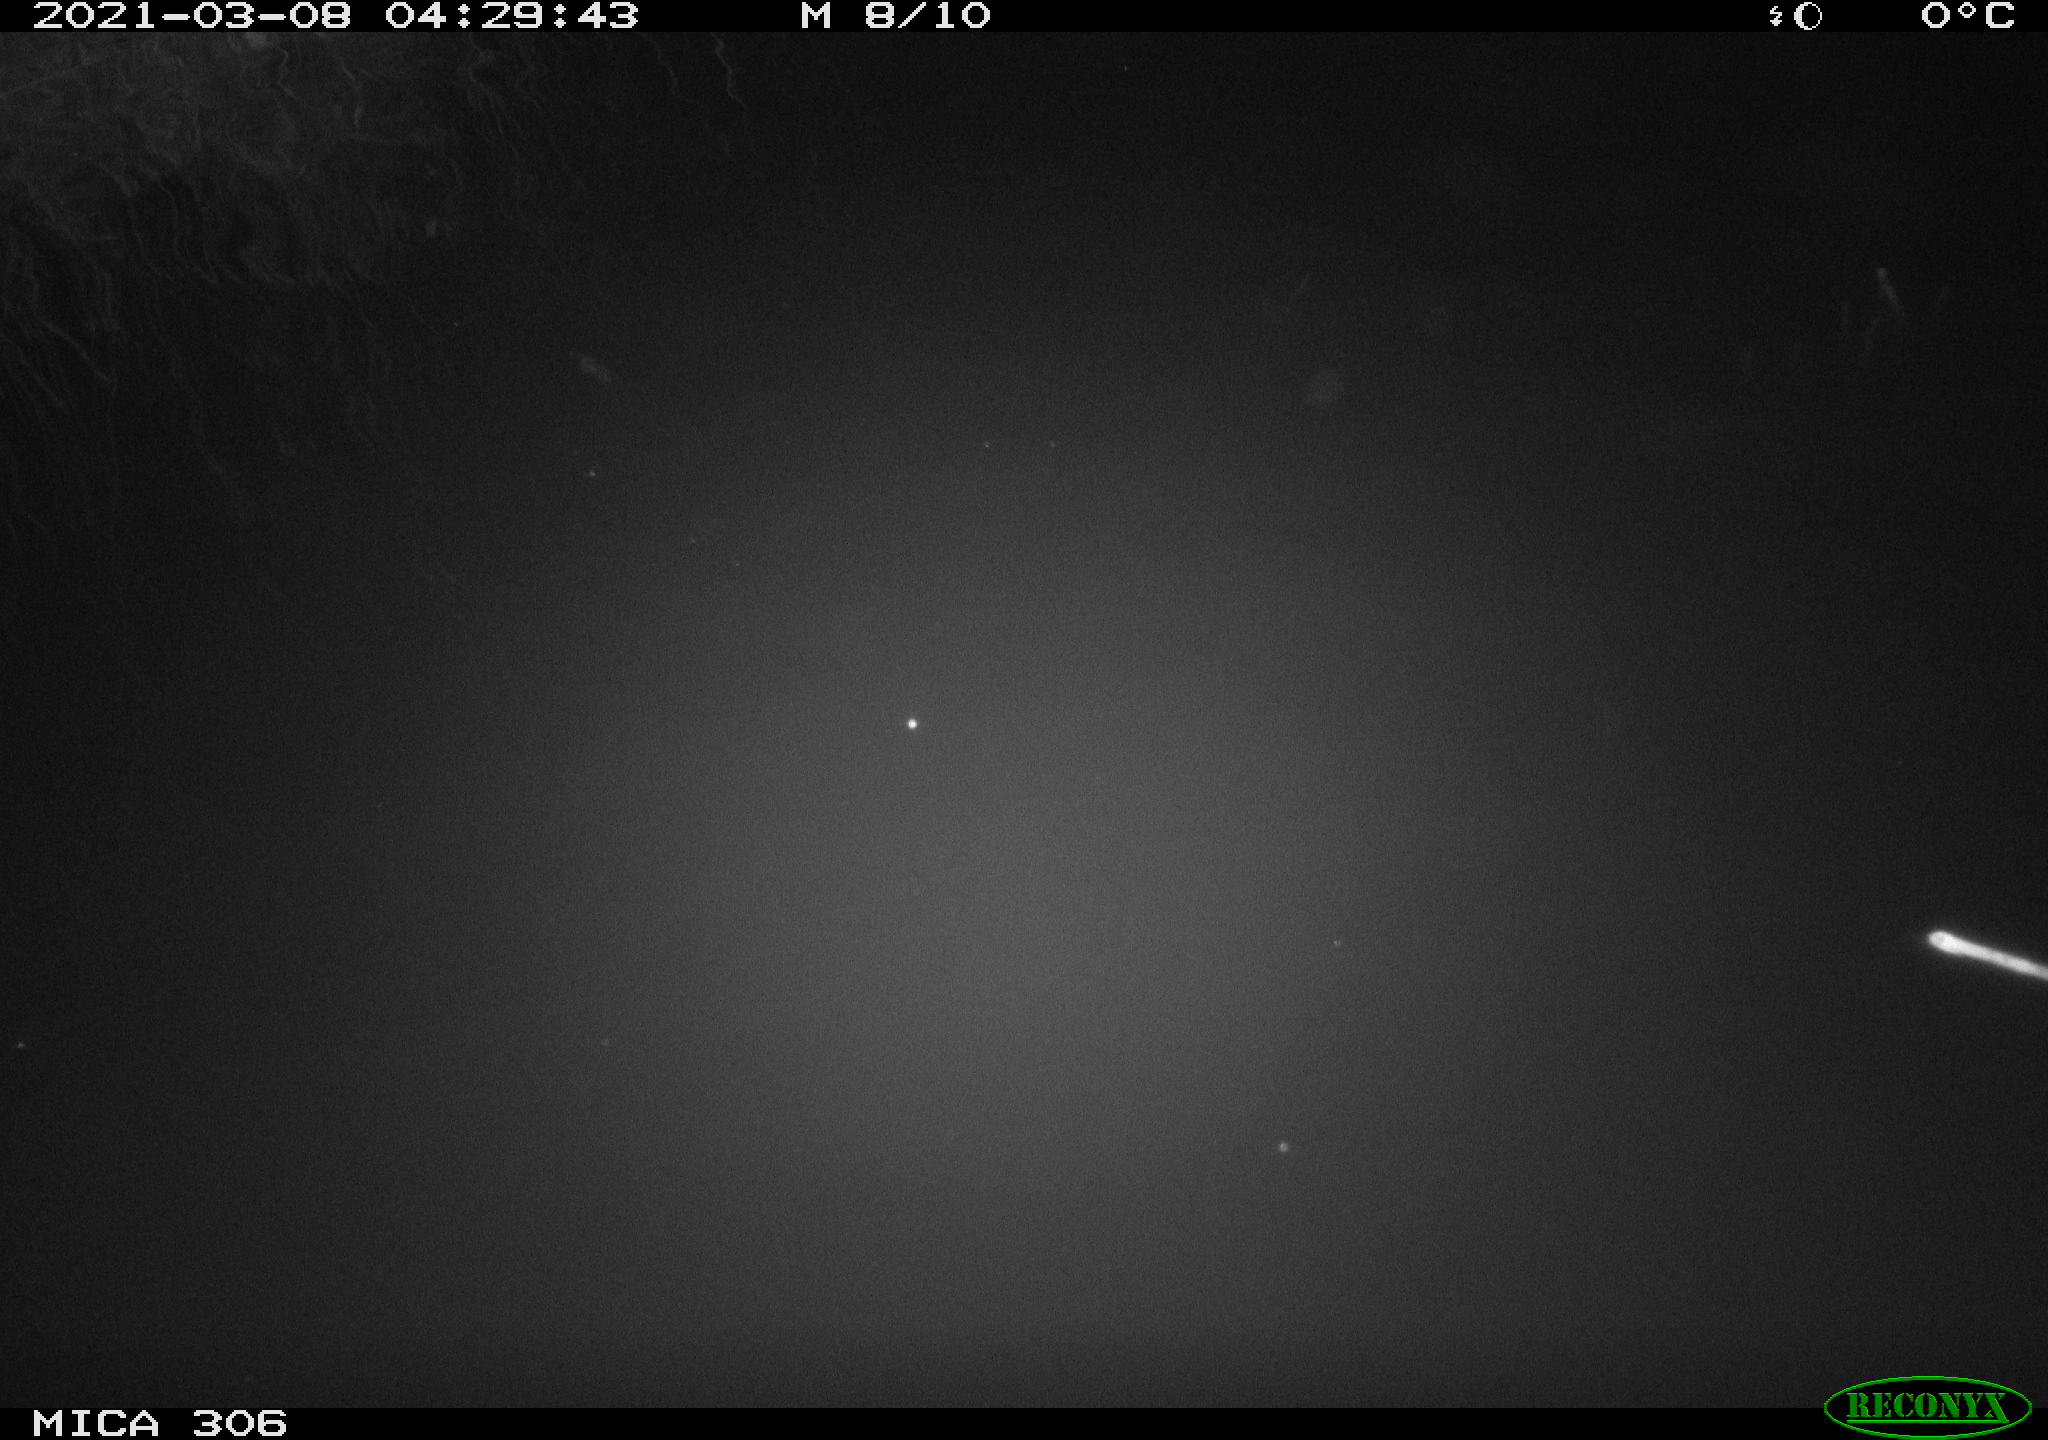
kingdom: Animalia
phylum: Chordata
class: Mammalia
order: Rodentia
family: Cricetidae
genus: Ondatra
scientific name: Ondatra zibethicus
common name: Muskrat
